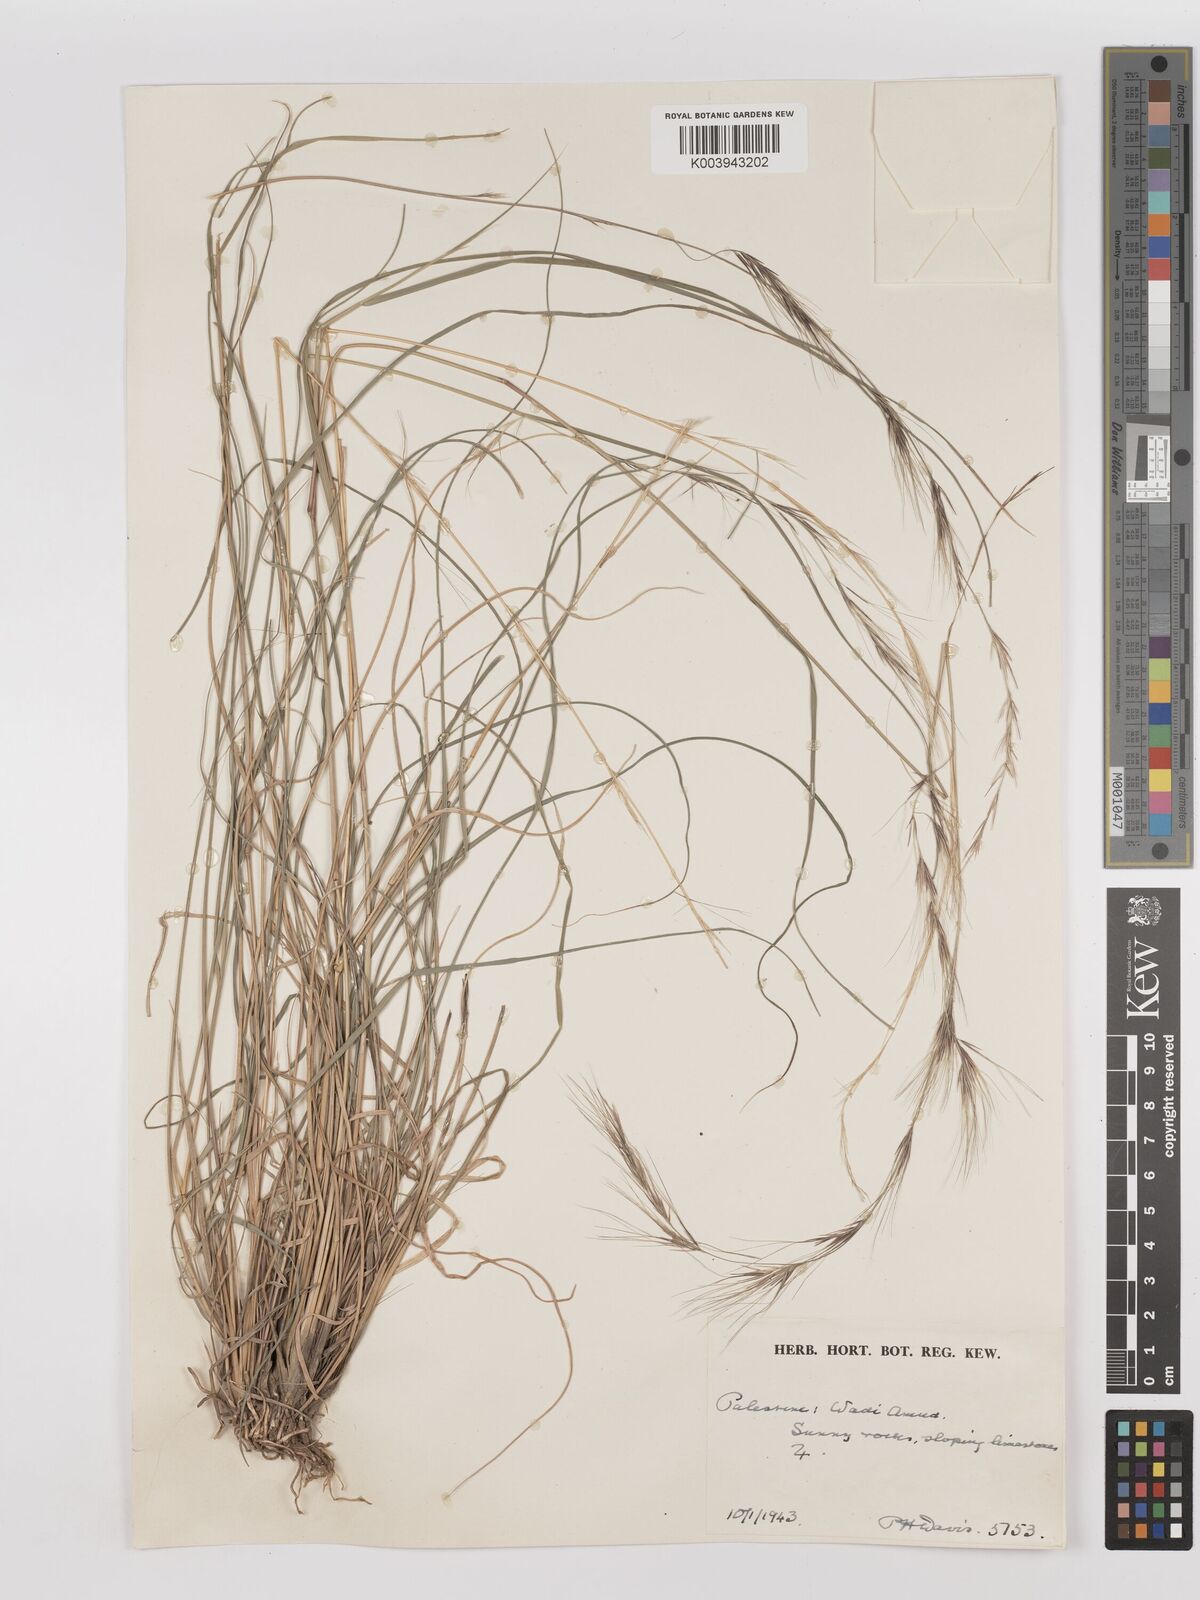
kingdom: Plantae
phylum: Tracheophyta
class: Liliopsida
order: Poales
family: Poaceae
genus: Aristida
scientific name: Aristida
